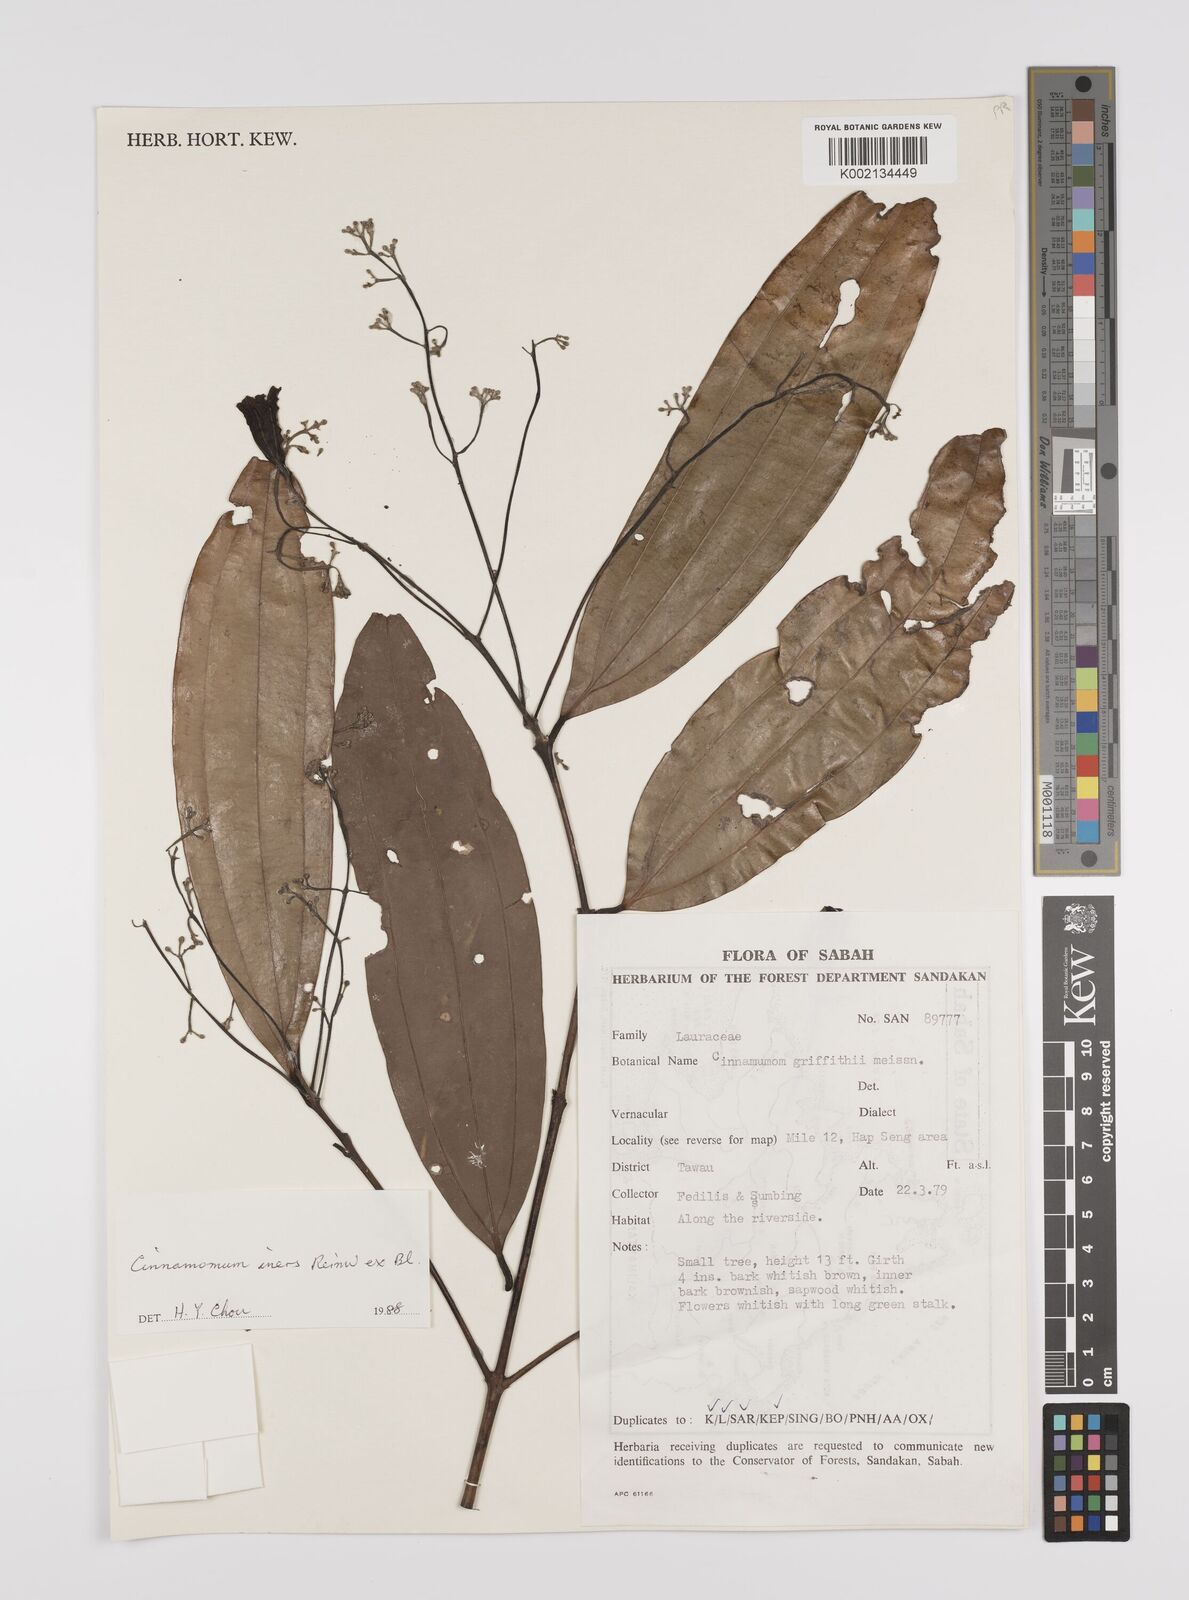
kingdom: Plantae
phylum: Tracheophyta
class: Magnoliopsida
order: Laurales
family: Lauraceae
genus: Cinnamomum
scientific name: Cinnamomum iners
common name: Wild cinnamon
